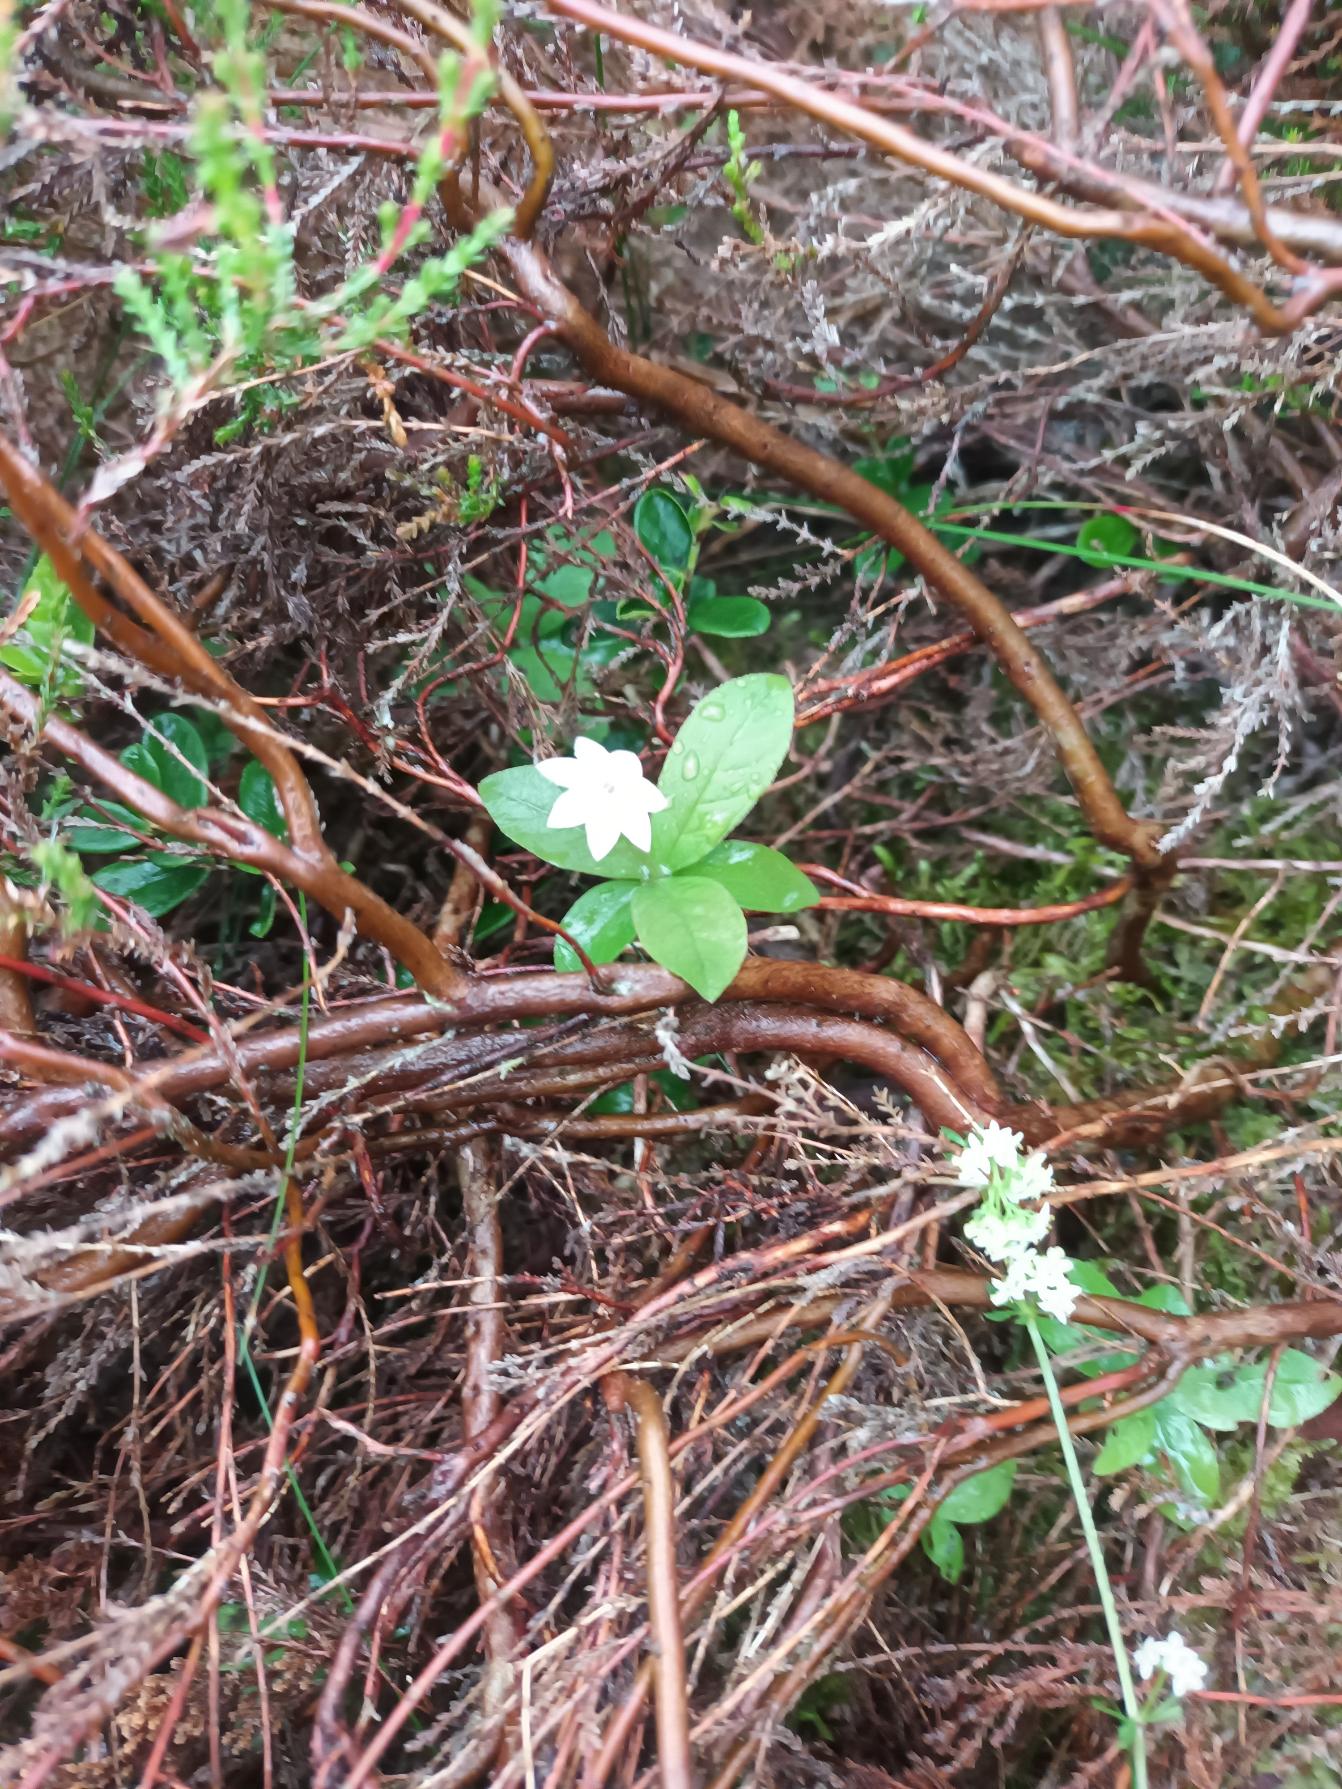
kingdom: Plantae
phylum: Tracheophyta
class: Magnoliopsida
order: Ericales
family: Primulaceae
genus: Lysimachia
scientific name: Lysimachia europaea
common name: Skovstjerne
